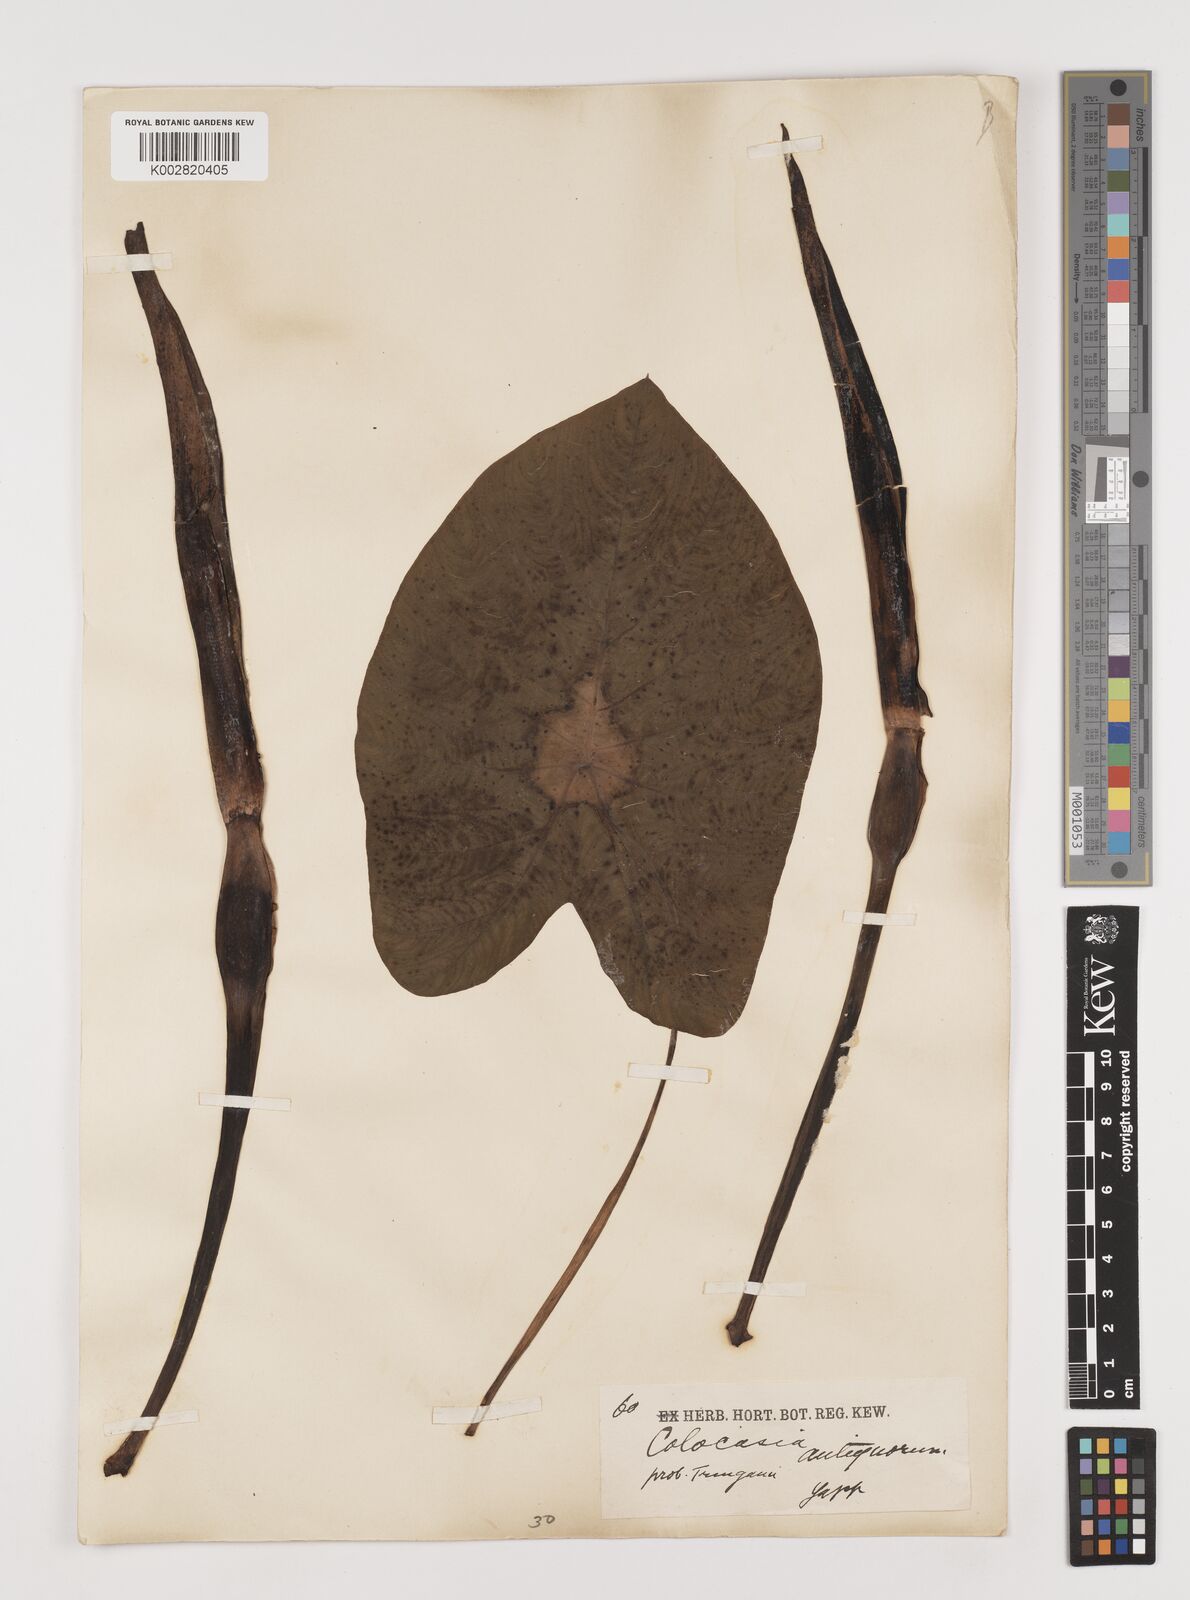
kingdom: Plantae
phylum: Tracheophyta
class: Liliopsida
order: Alismatales
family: Araceae
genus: Colocasia
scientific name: Colocasia esculenta
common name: Taro
